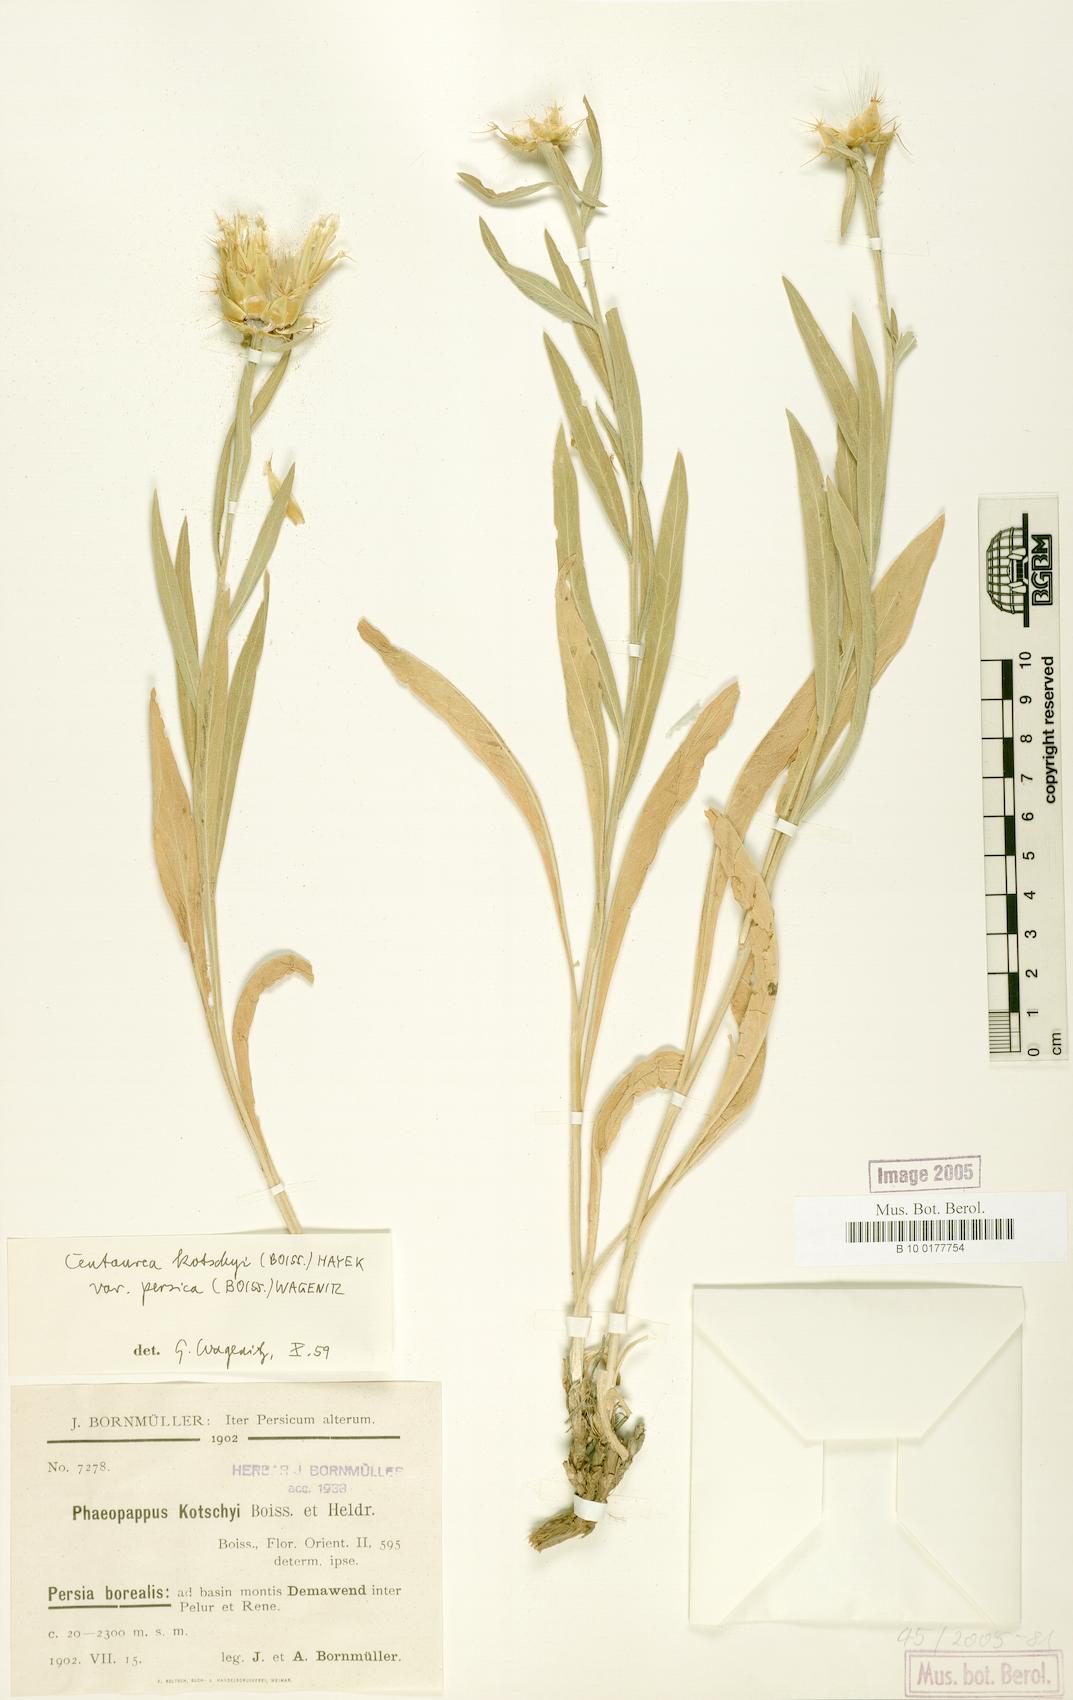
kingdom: Plantae
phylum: Tracheophyta
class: Magnoliopsida
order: Asterales
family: Asteraceae
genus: Centaurea
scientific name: Centaurea kotschyi
